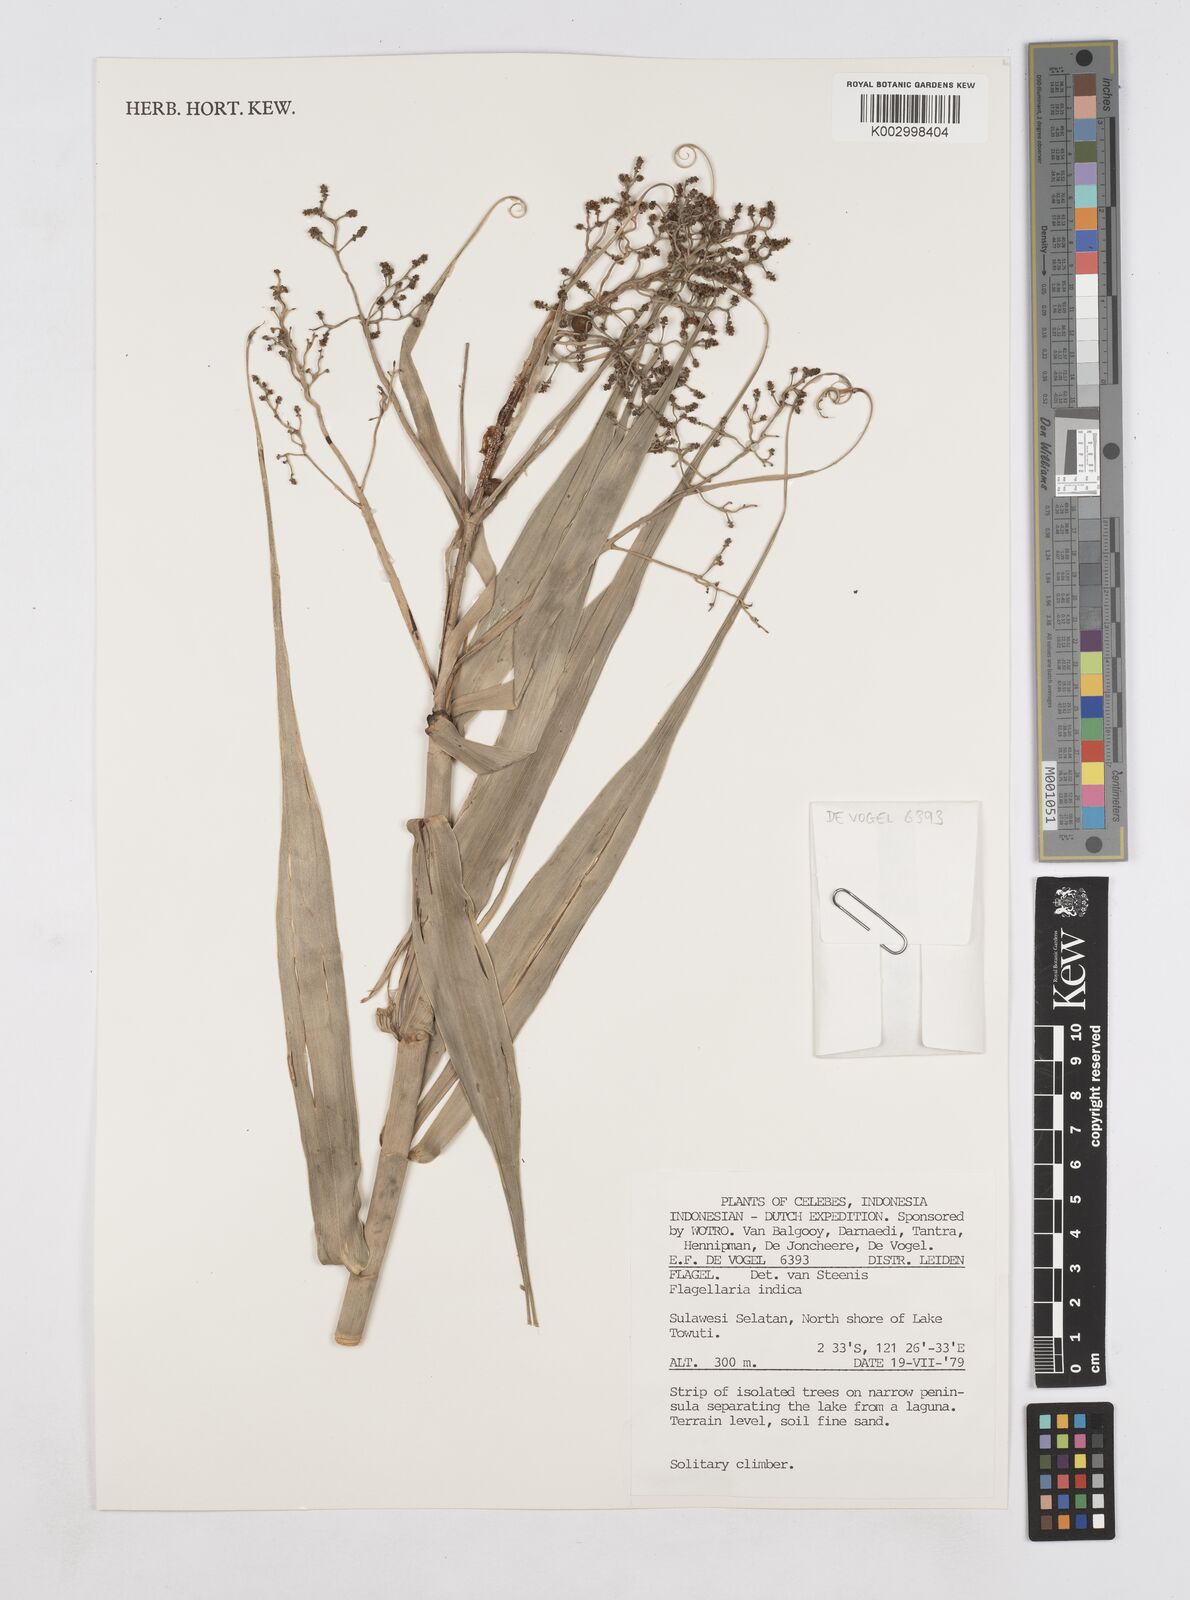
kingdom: Plantae
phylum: Tracheophyta
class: Liliopsida
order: Poales
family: Flagellariaceae
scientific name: Flagellariaceae
